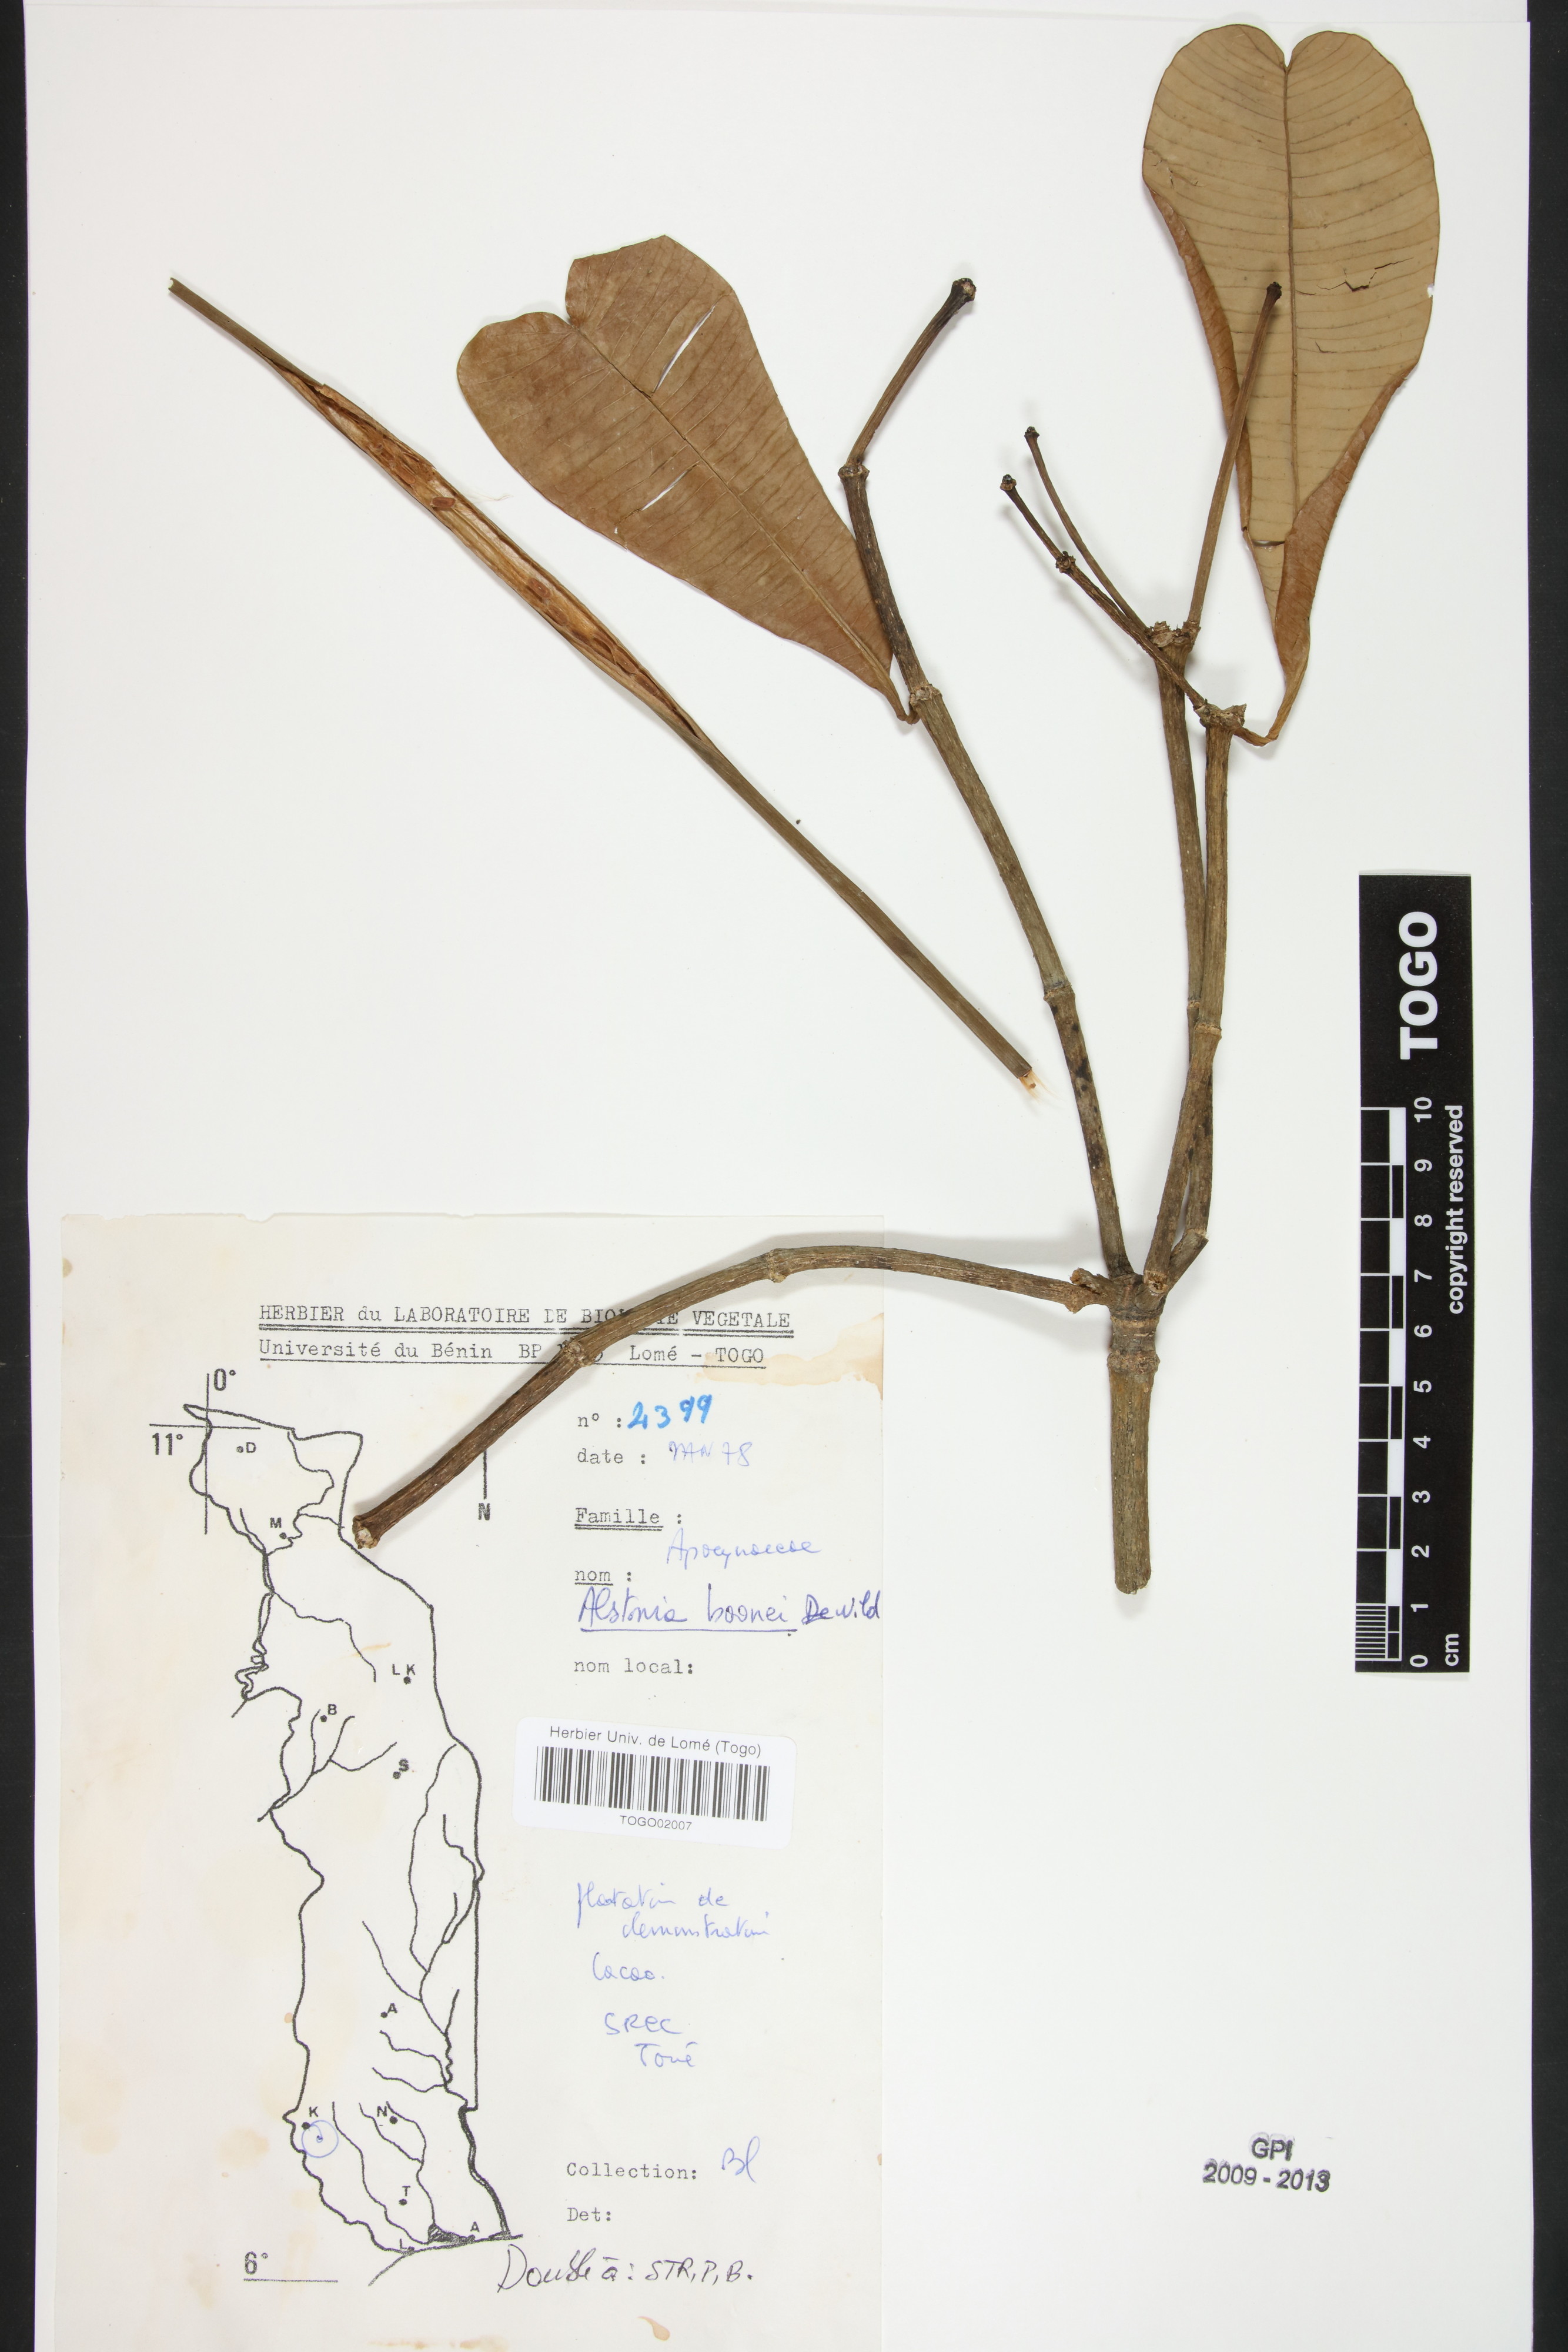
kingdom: Plantae
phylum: Tracheophyta
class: Magnoliopsida
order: Gentianales
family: Apocynaceae
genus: Alstonia
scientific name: Alstonia boonei
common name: Alstonia
